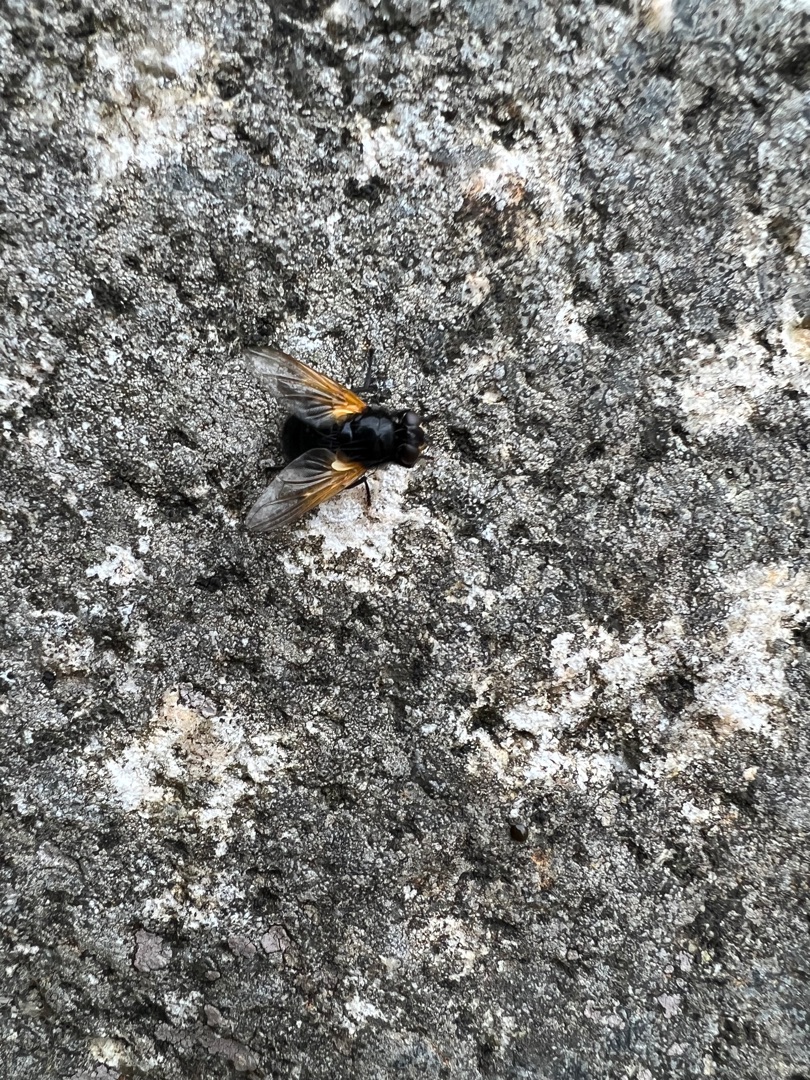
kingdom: Animalia
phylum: Arthropoda
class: Insecta
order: Diptera
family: Muscidae
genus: Mesembrina
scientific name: Mesembrina meridiana
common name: Gulvinget flue
